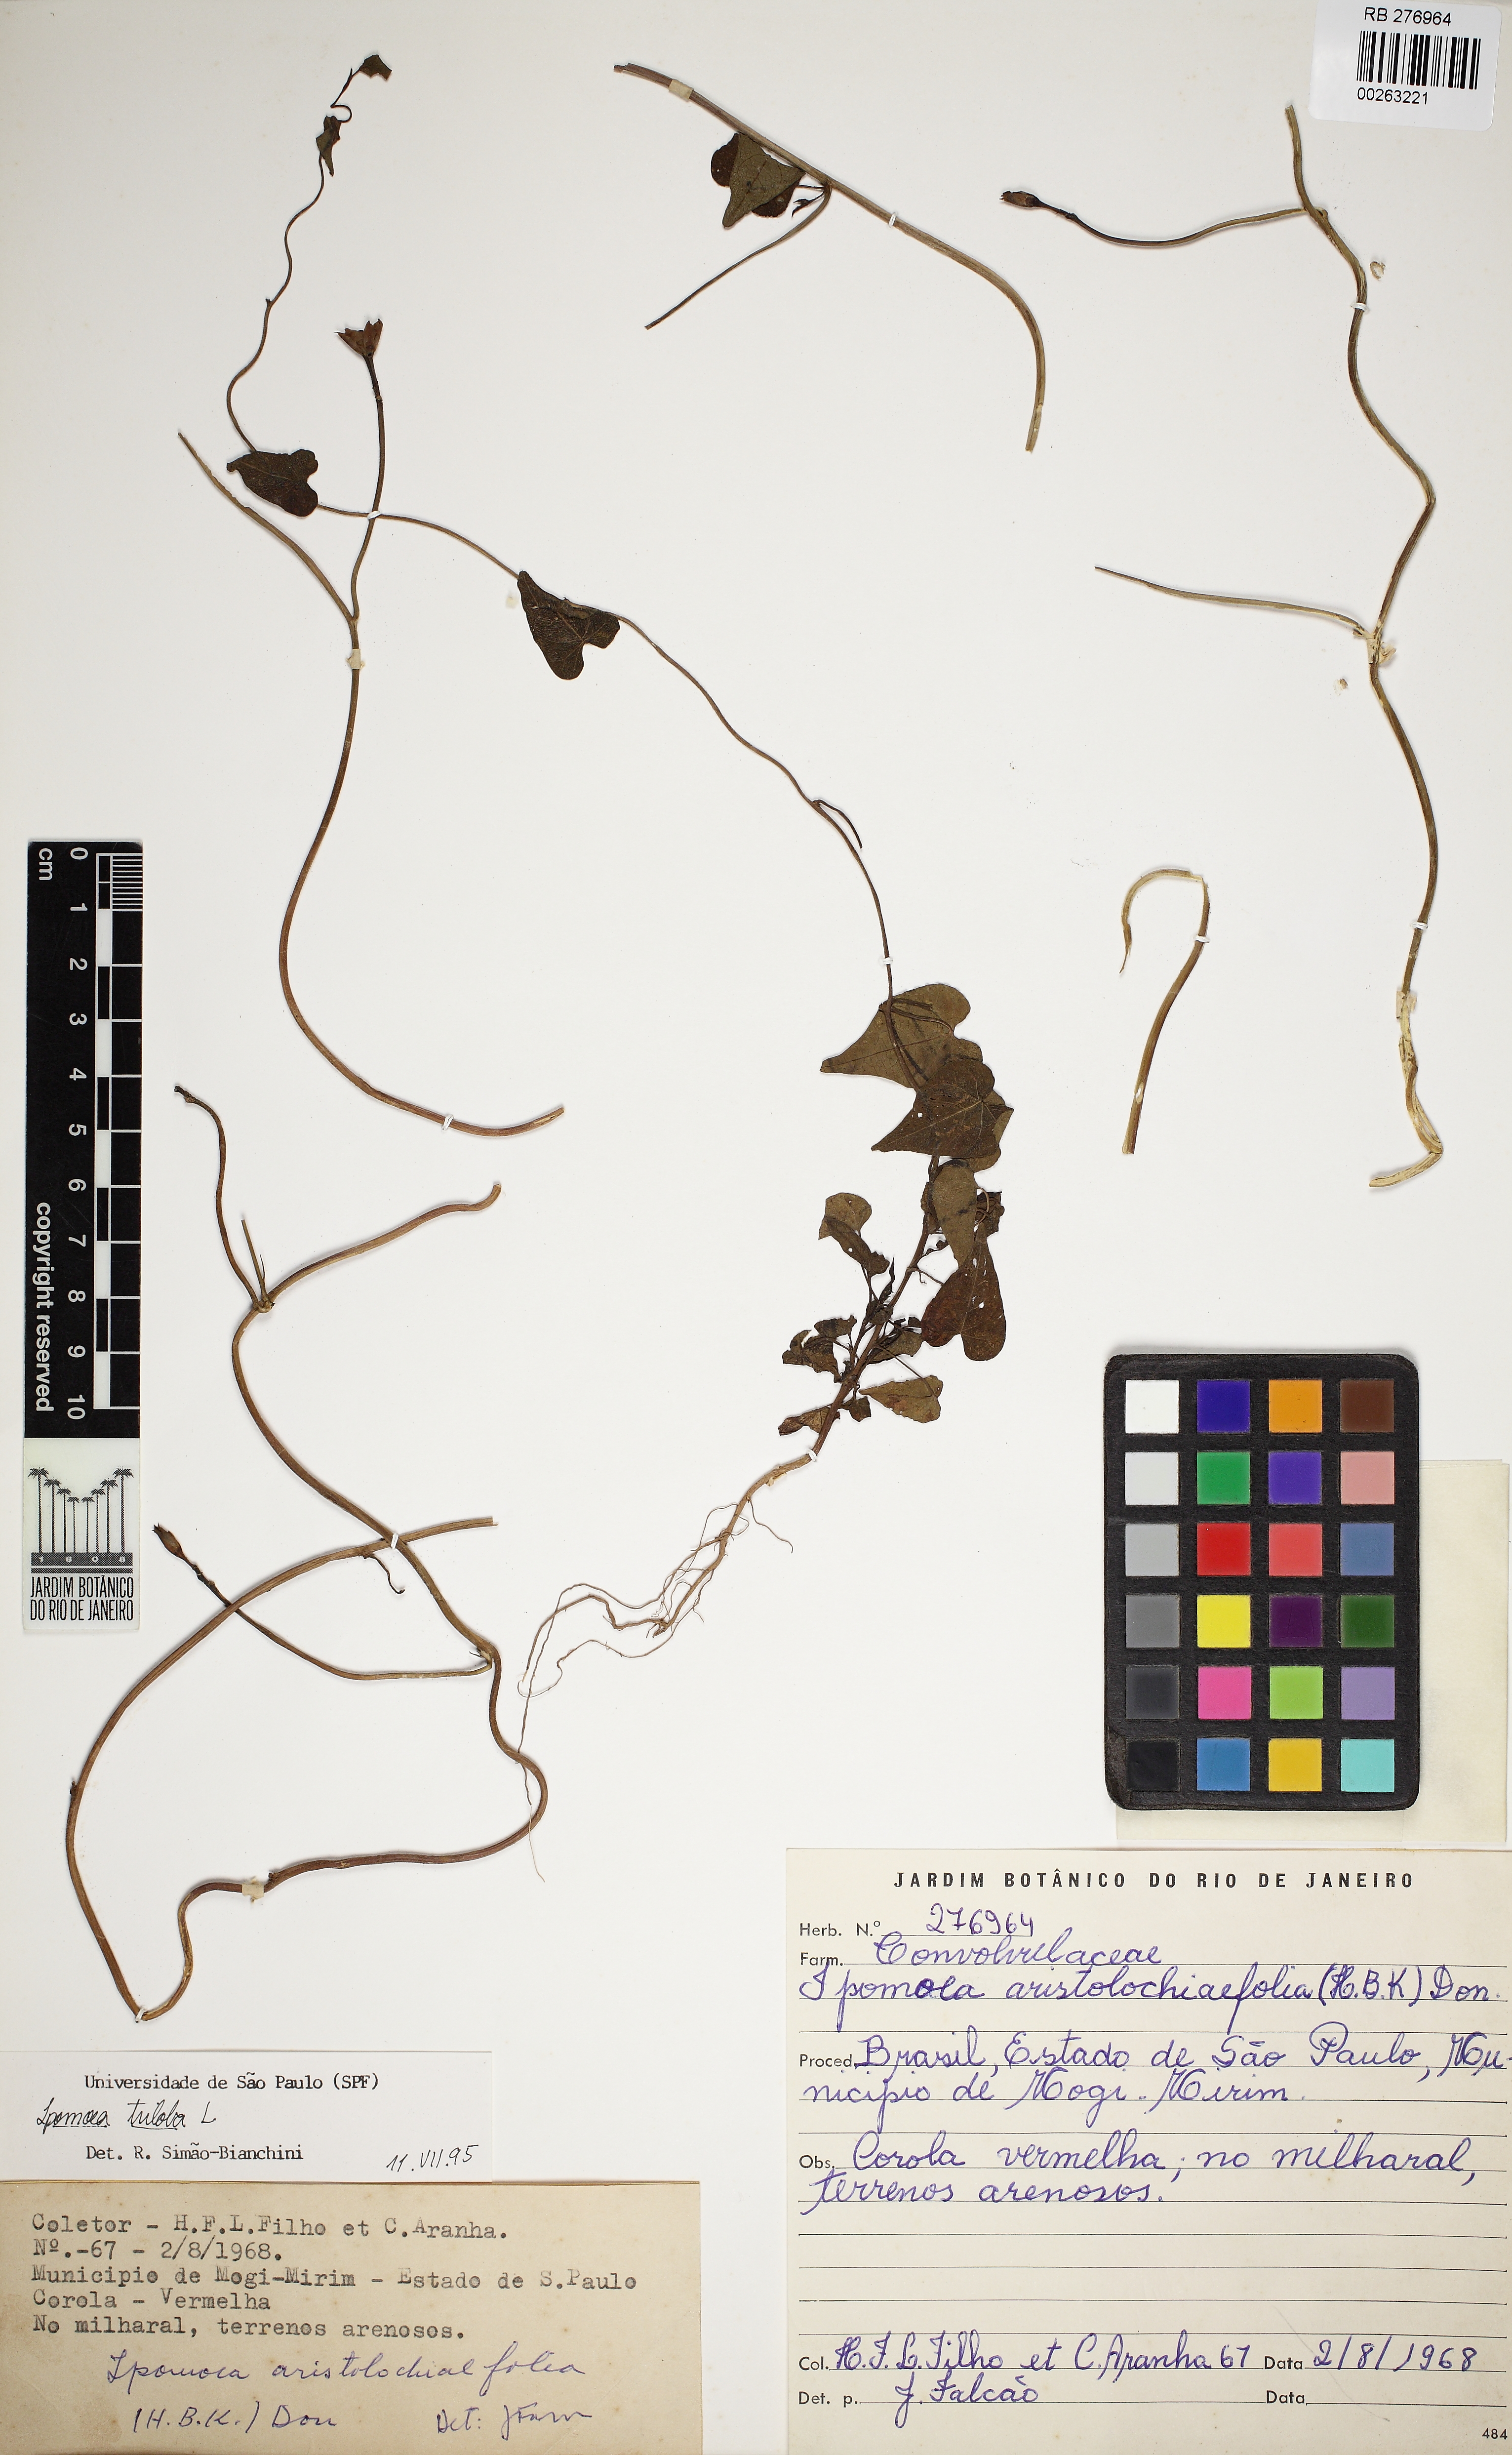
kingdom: Plantae
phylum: Tracheophyta
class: Magnoliopsida
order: Solanales
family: Convolvulaceae
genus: Ipomoea
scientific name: Ipomoea triloba
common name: Little-bell
